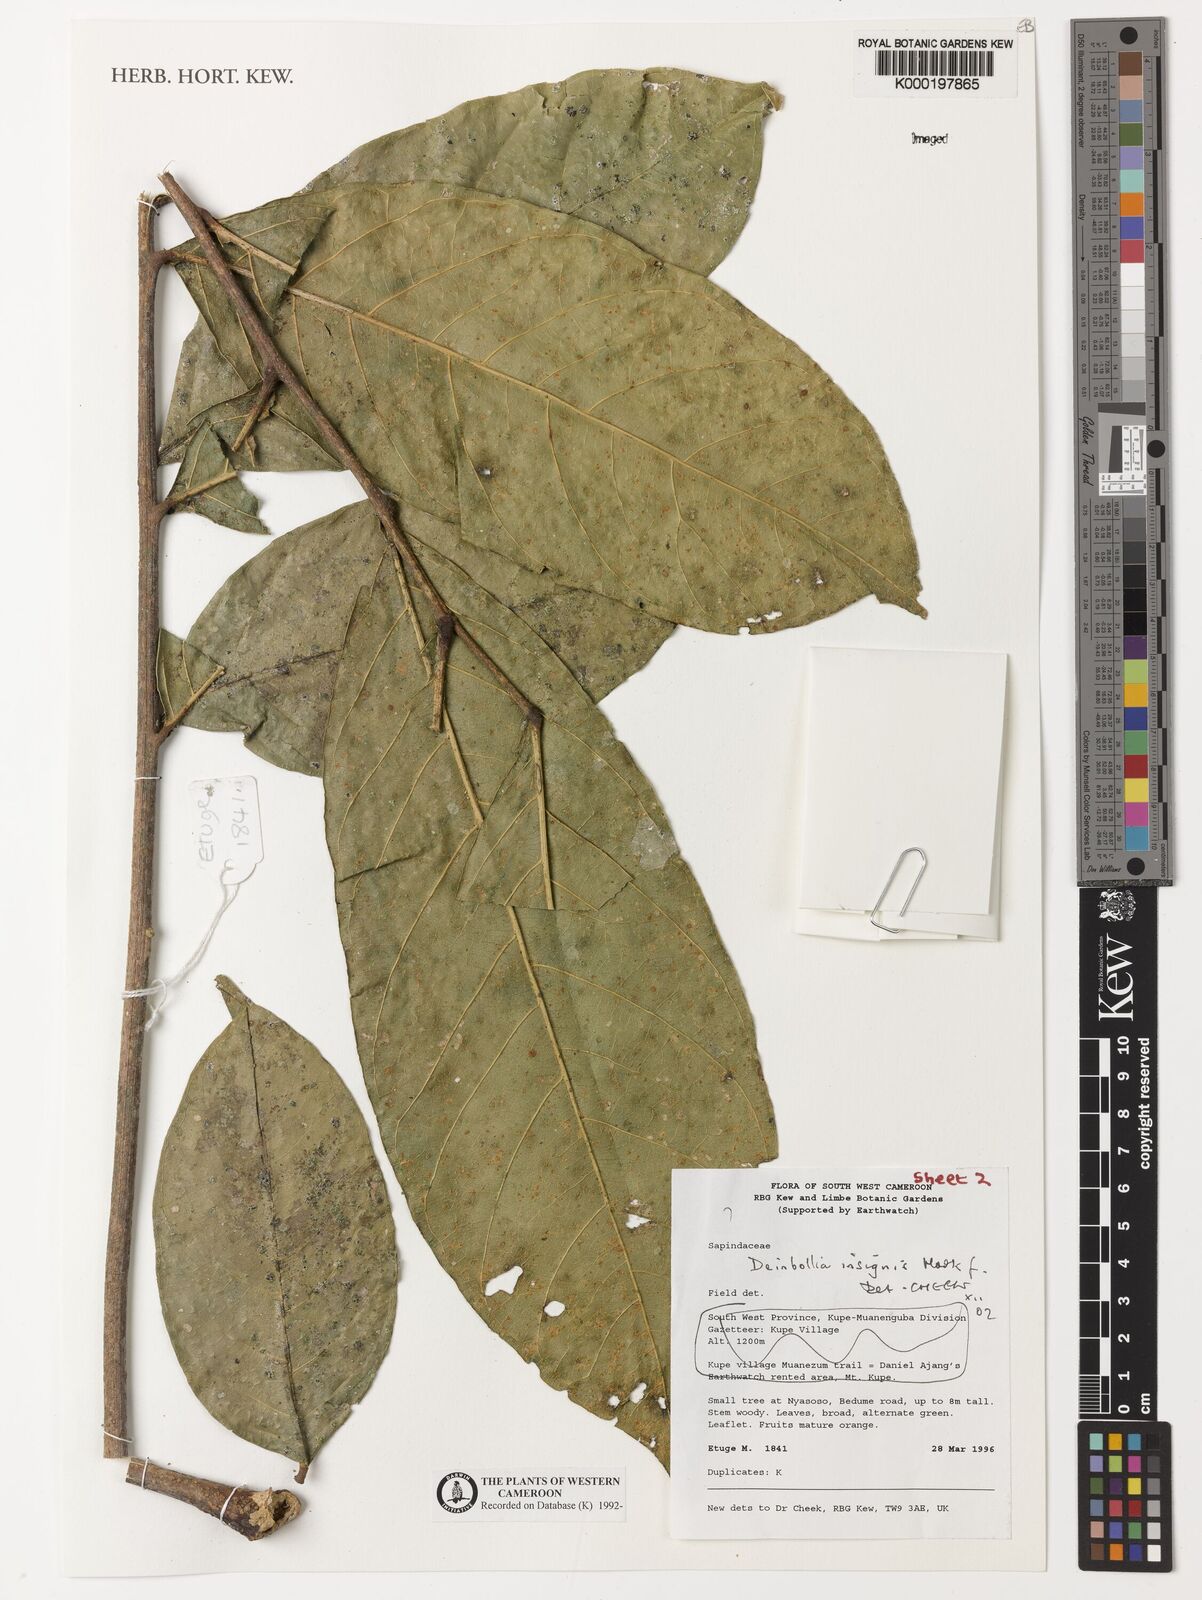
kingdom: Plantae
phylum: Tracheophyta
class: Magnoliopsida
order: Sapindales
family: Sapindaceae
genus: Deinbollia
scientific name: Deinbollia insignis
